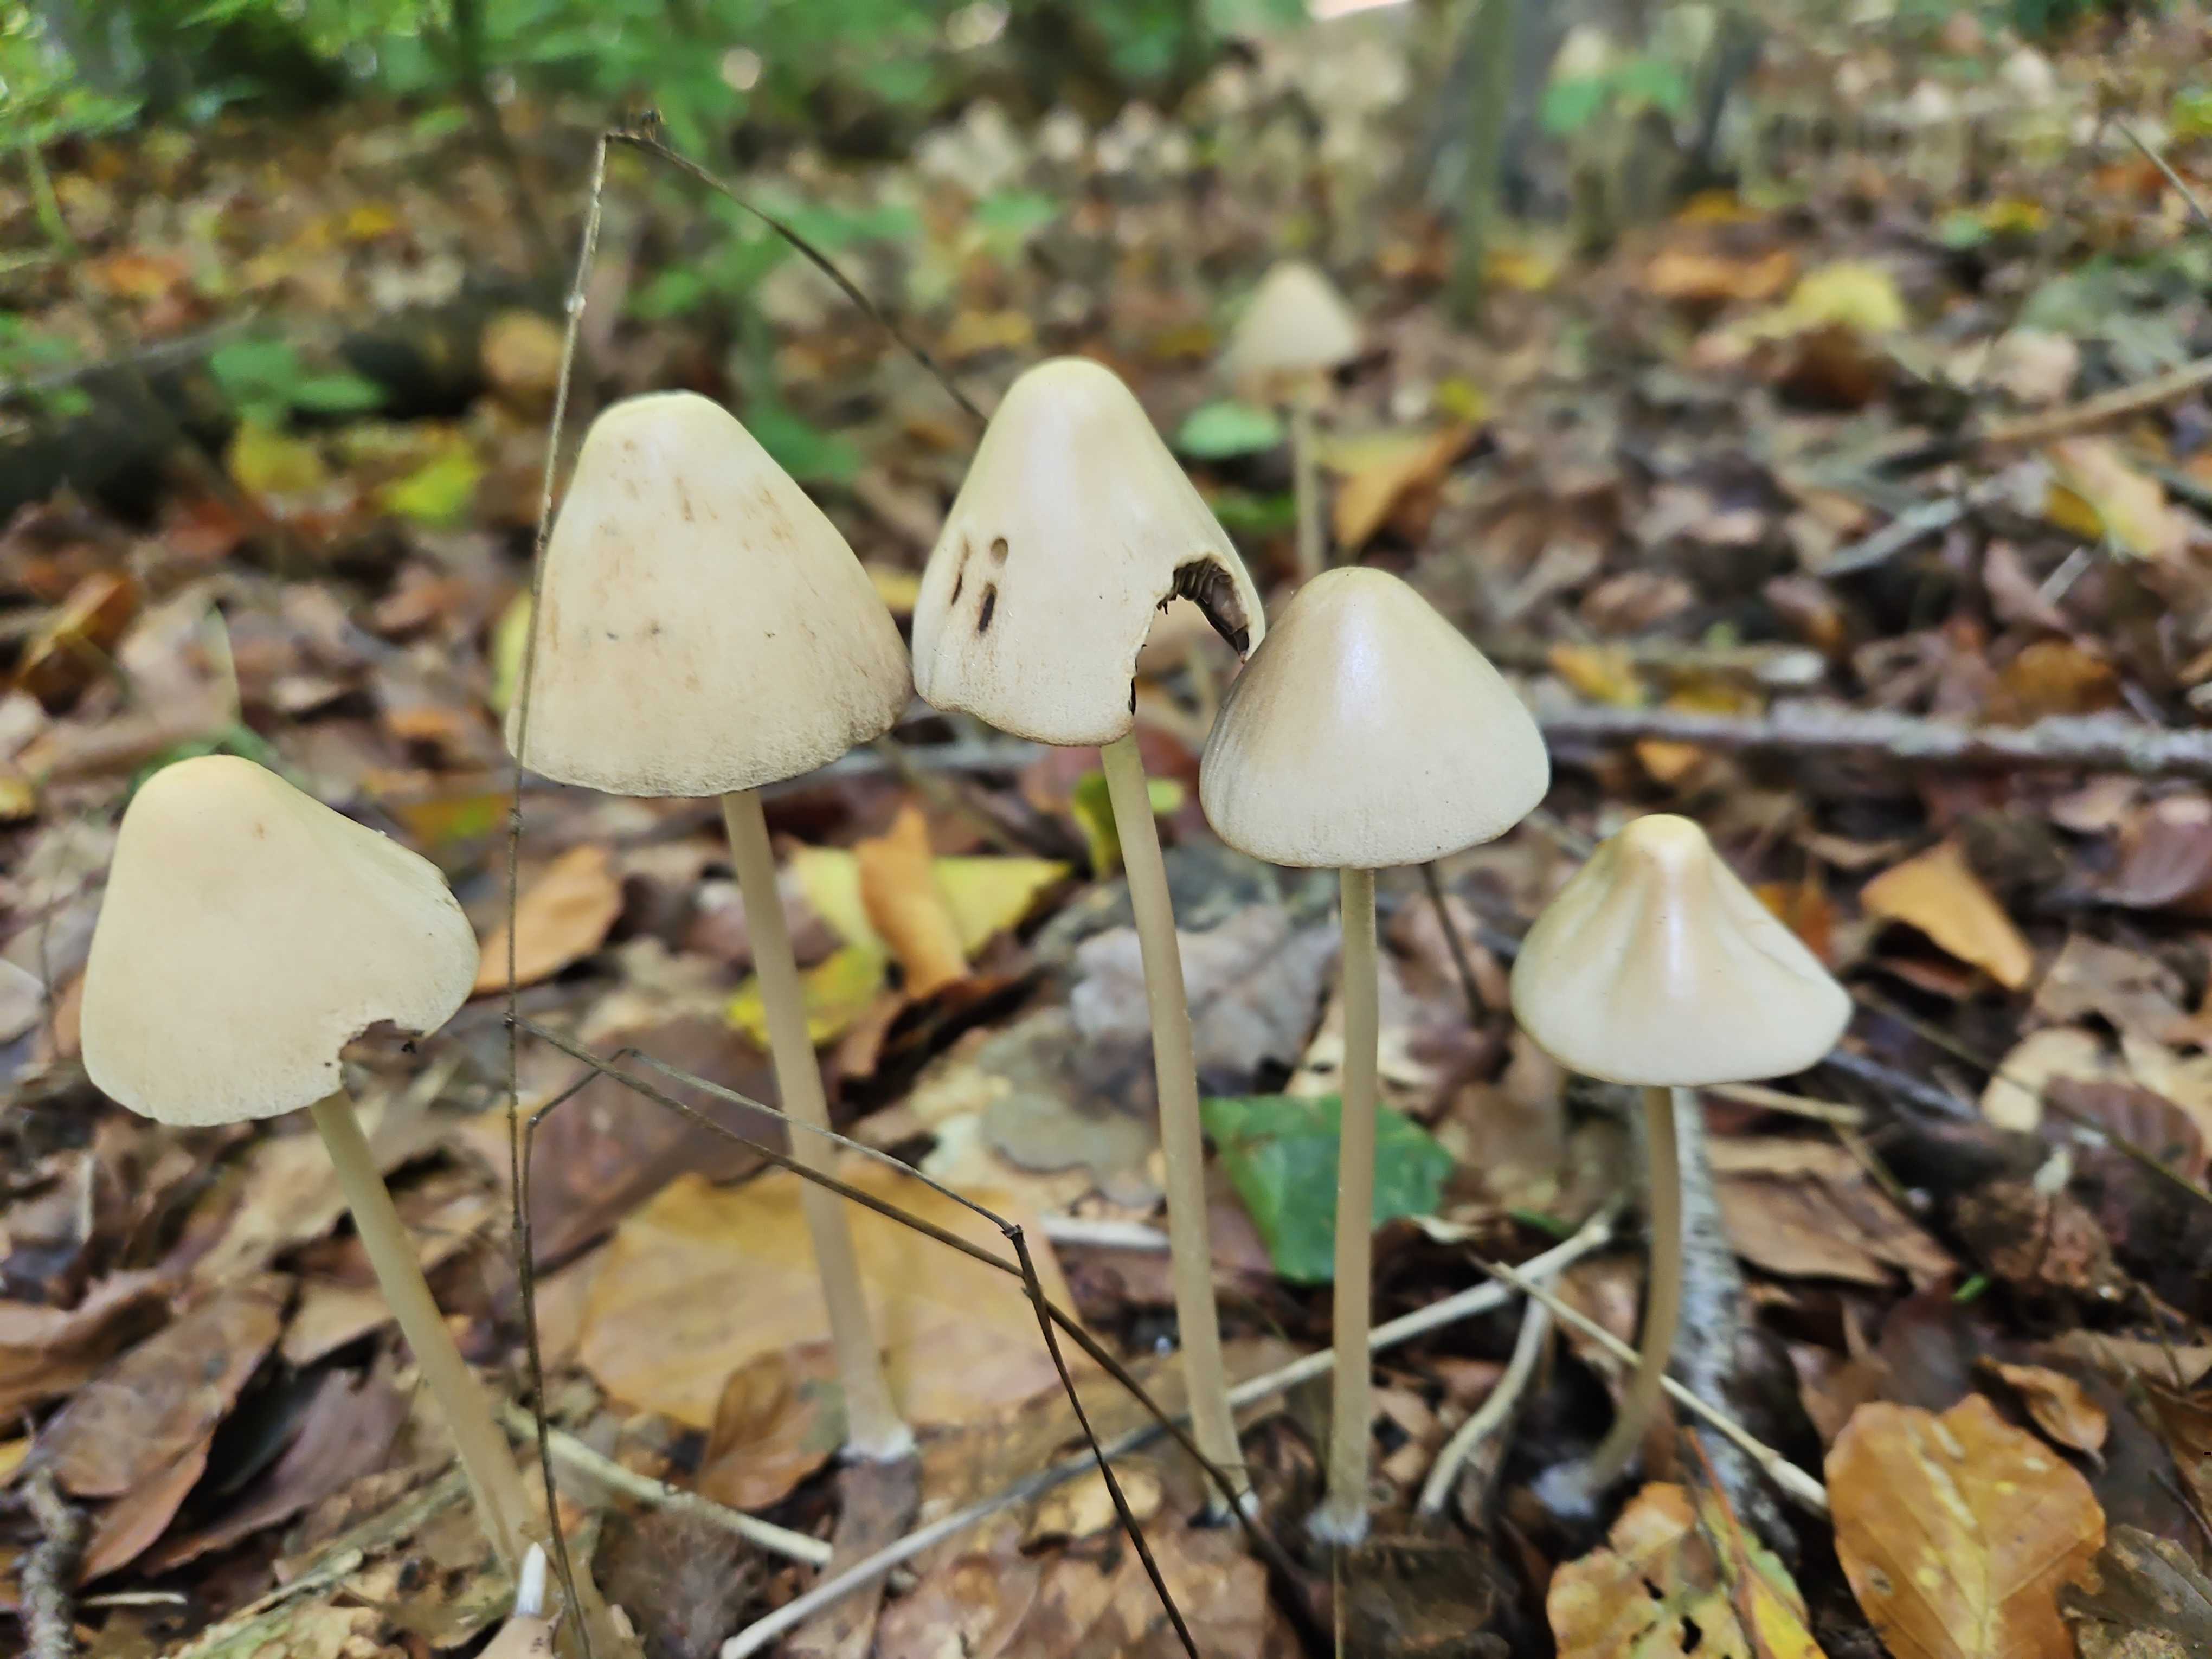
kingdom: Fungi
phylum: Basidiomycota
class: Agaricomycetes
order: Agaricales
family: Psathyrellaceae
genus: Parasola
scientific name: Parasola conopilea
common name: kegle-hjulhat
